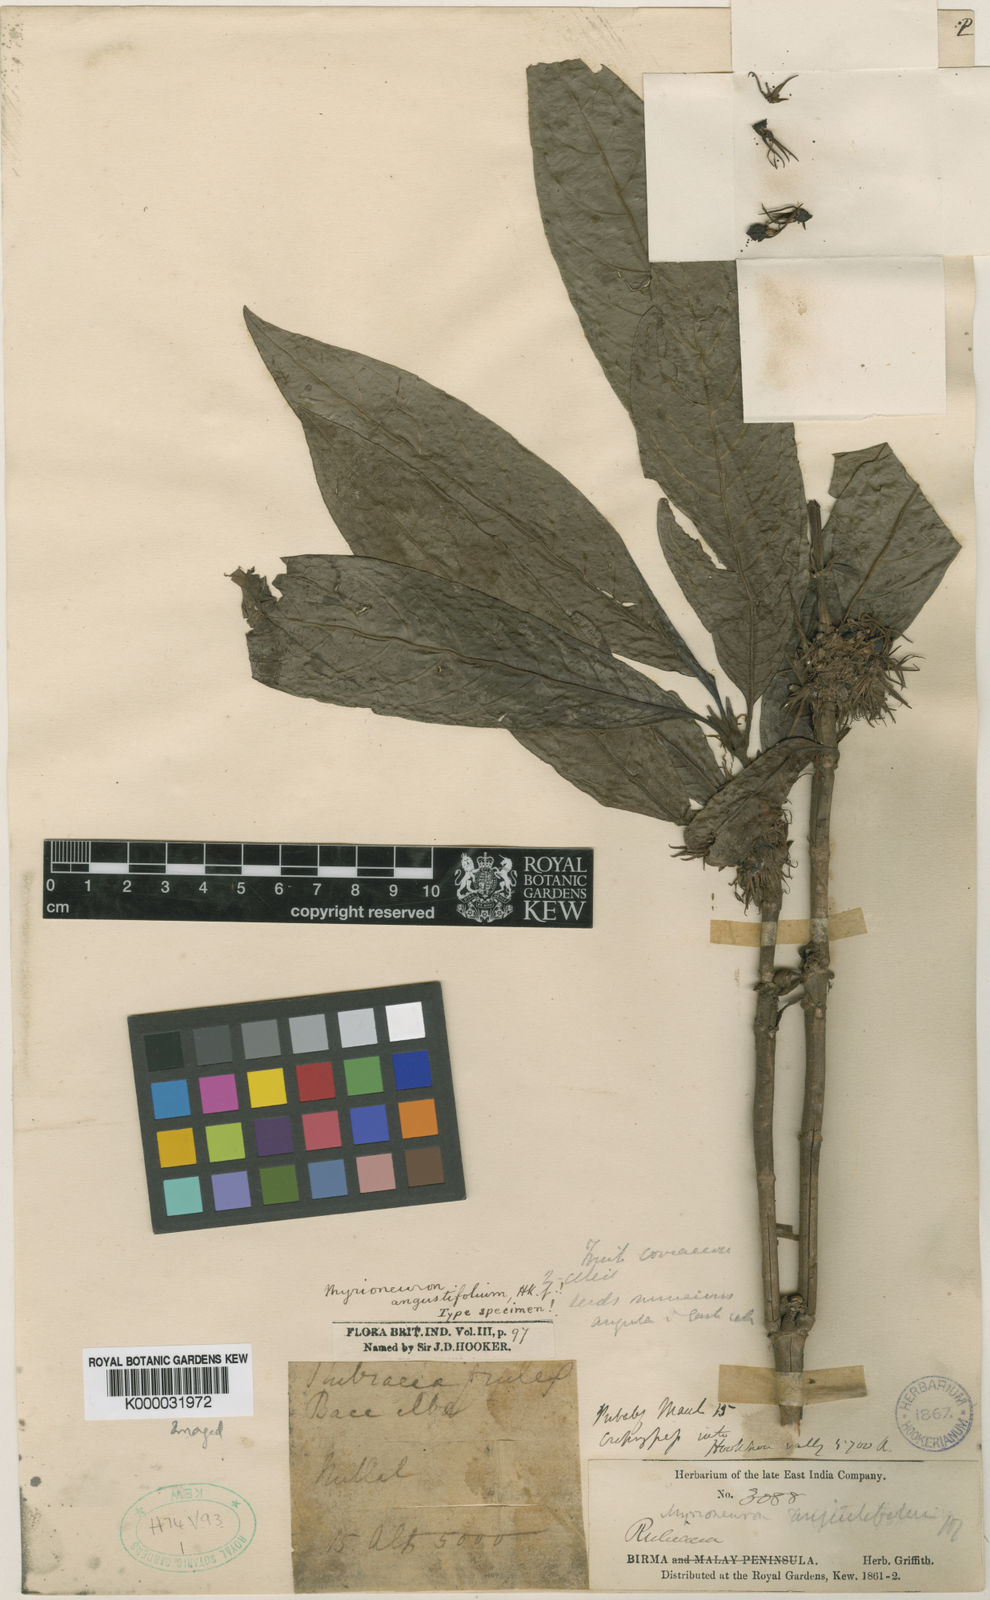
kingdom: Plantae
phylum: Tracheophyta
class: Magnoliopsida
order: Gentianales
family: Rubiaceae
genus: Mycetia
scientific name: Mycetia
